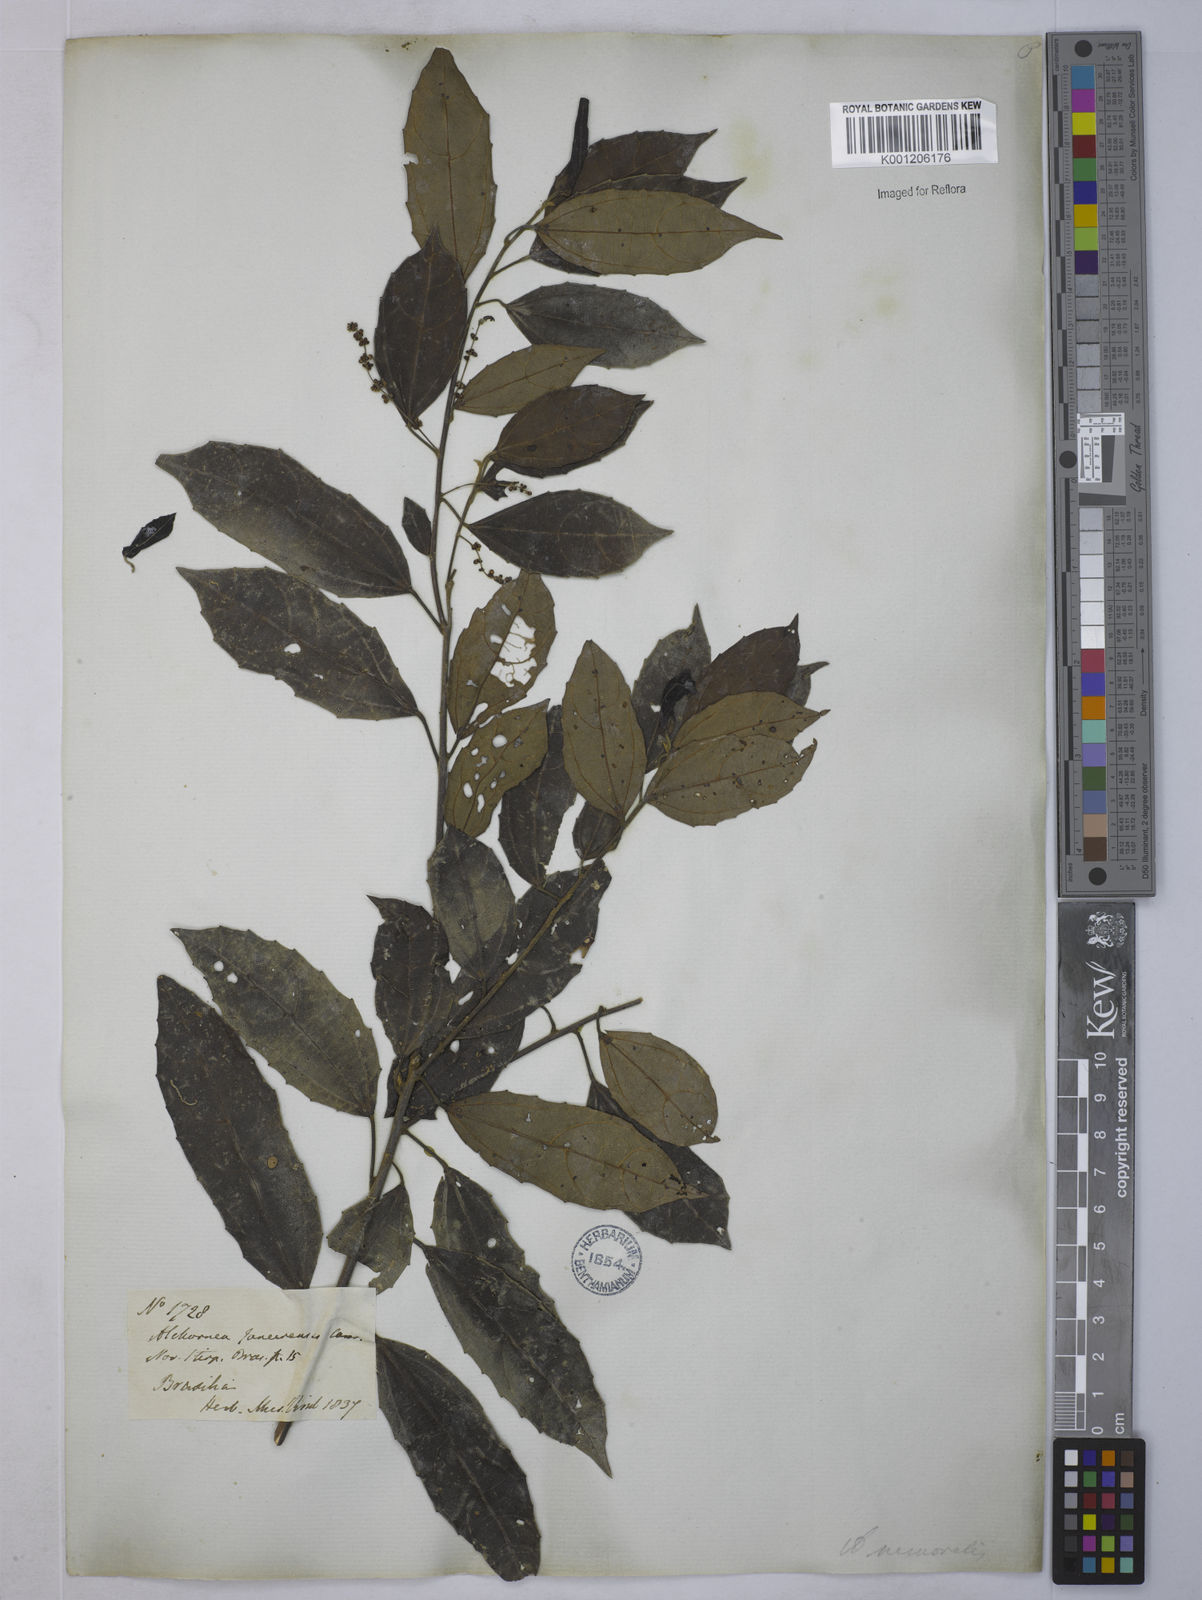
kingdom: Plantae
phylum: Tracheophyta
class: Magnoliopsida
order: Malpighiales
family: Euphorbiaceae
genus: Alchornea
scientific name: Alchornea
